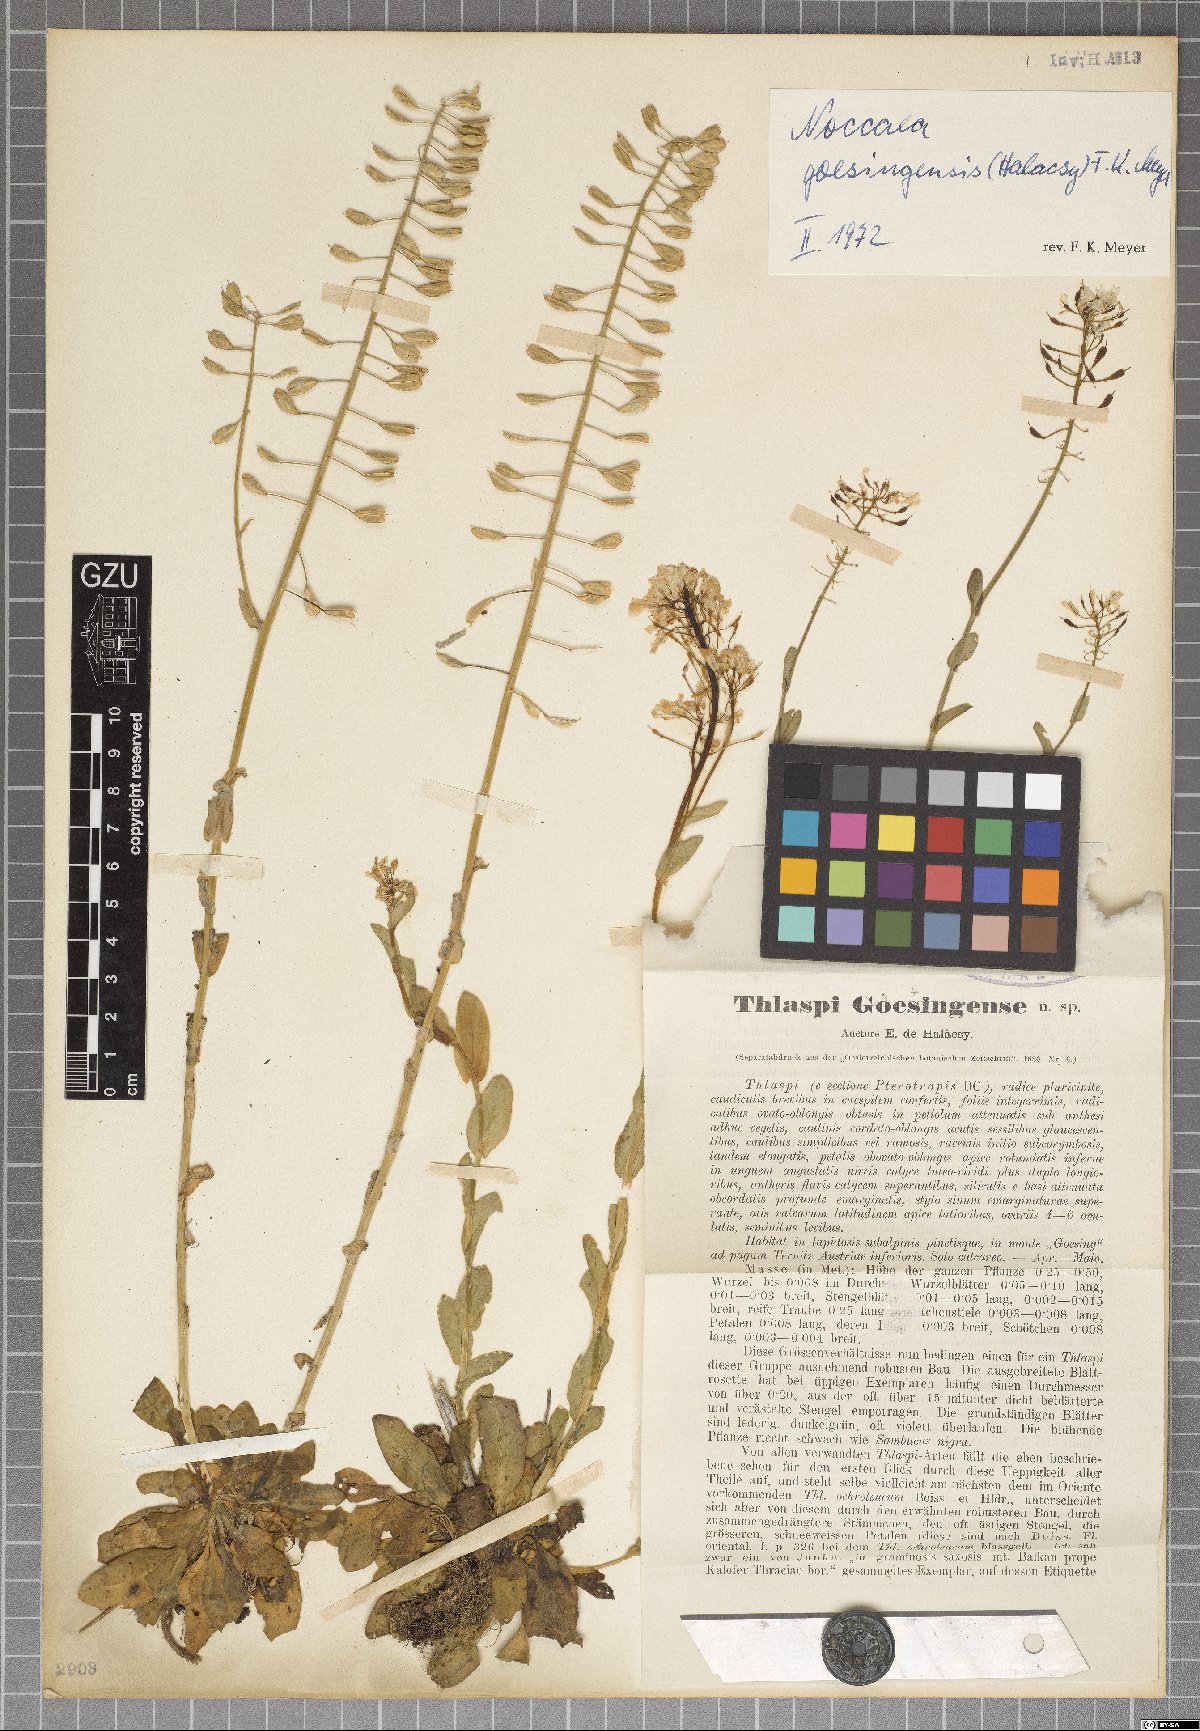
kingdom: Plantae
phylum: Tracheophyta
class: Magnoliopsida
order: Brassicales
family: Brassicaceae
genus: Noccaea
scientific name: Noccaea goesingensis
